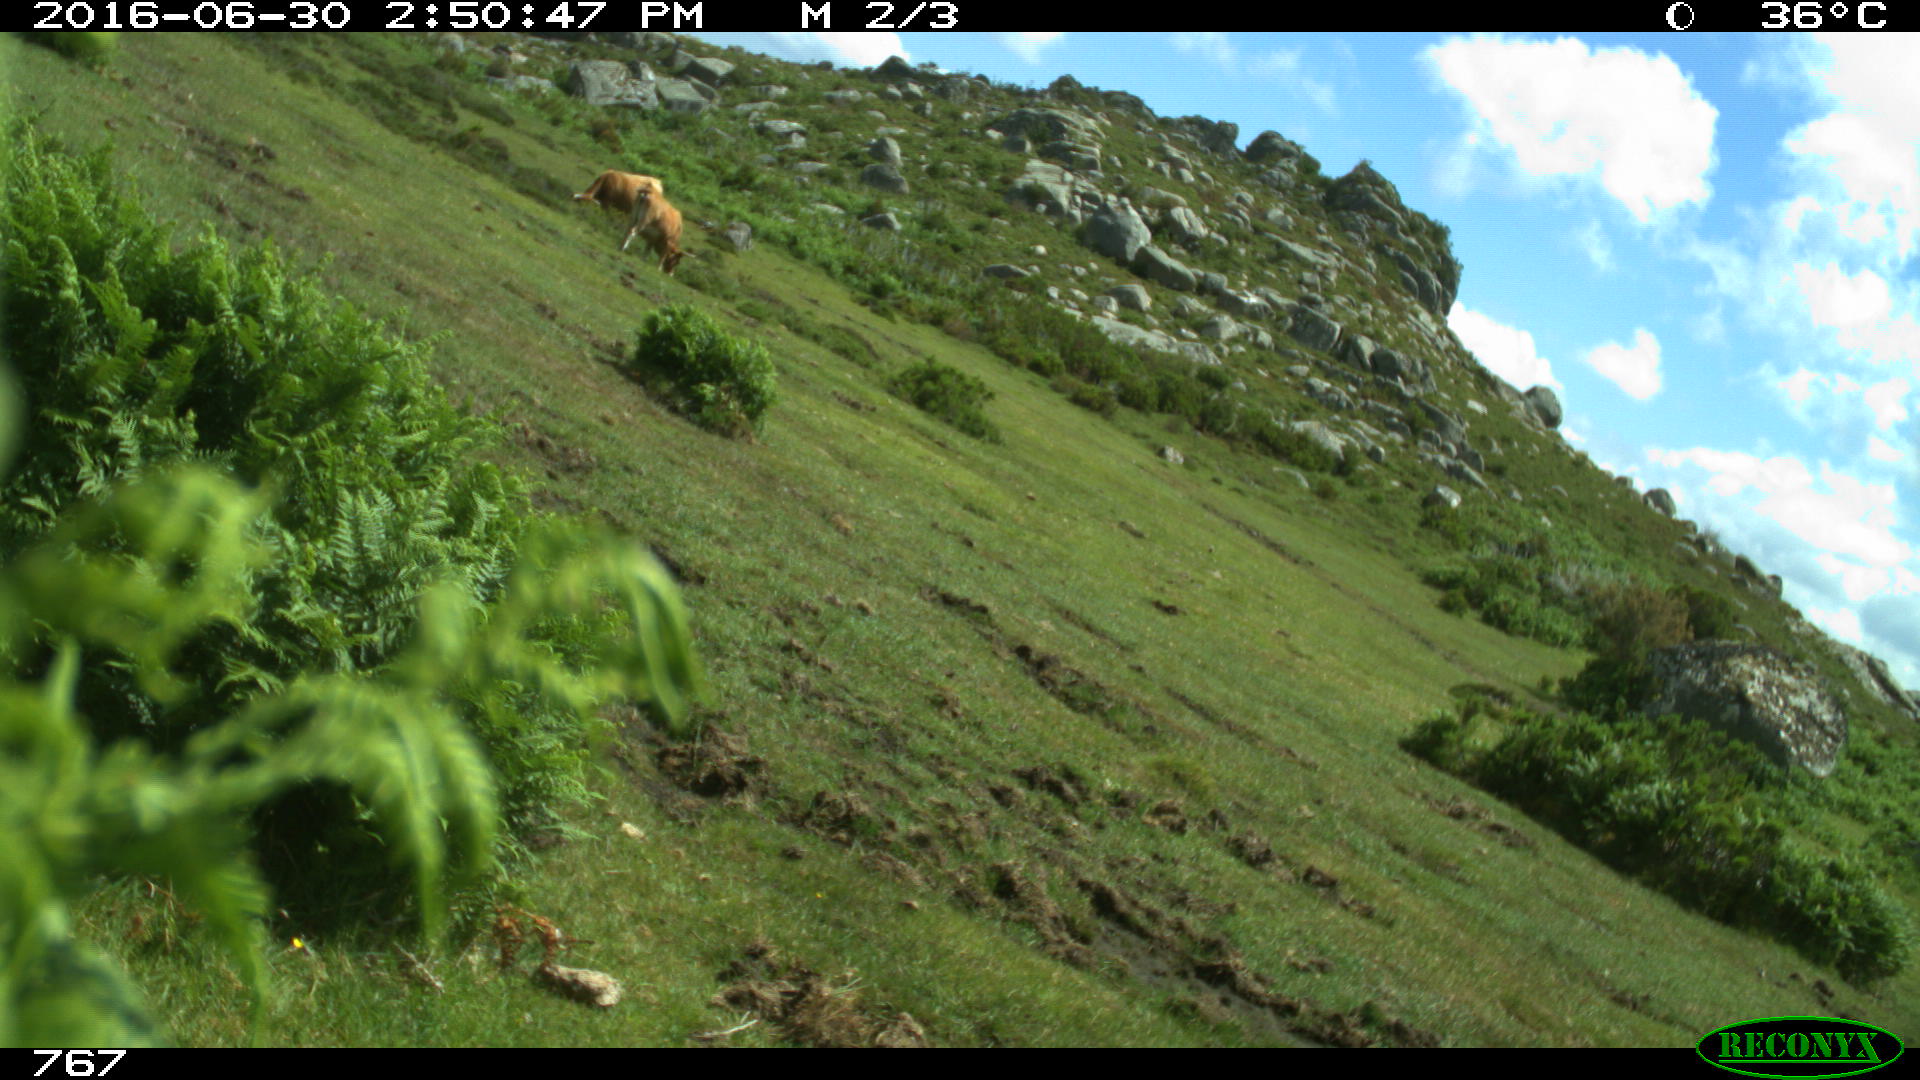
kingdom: Animalia
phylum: Chordata
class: Mammalia
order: Artiodactyla
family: Bovidae
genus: Bos
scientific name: Bos taurus
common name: Domesticated cattle
